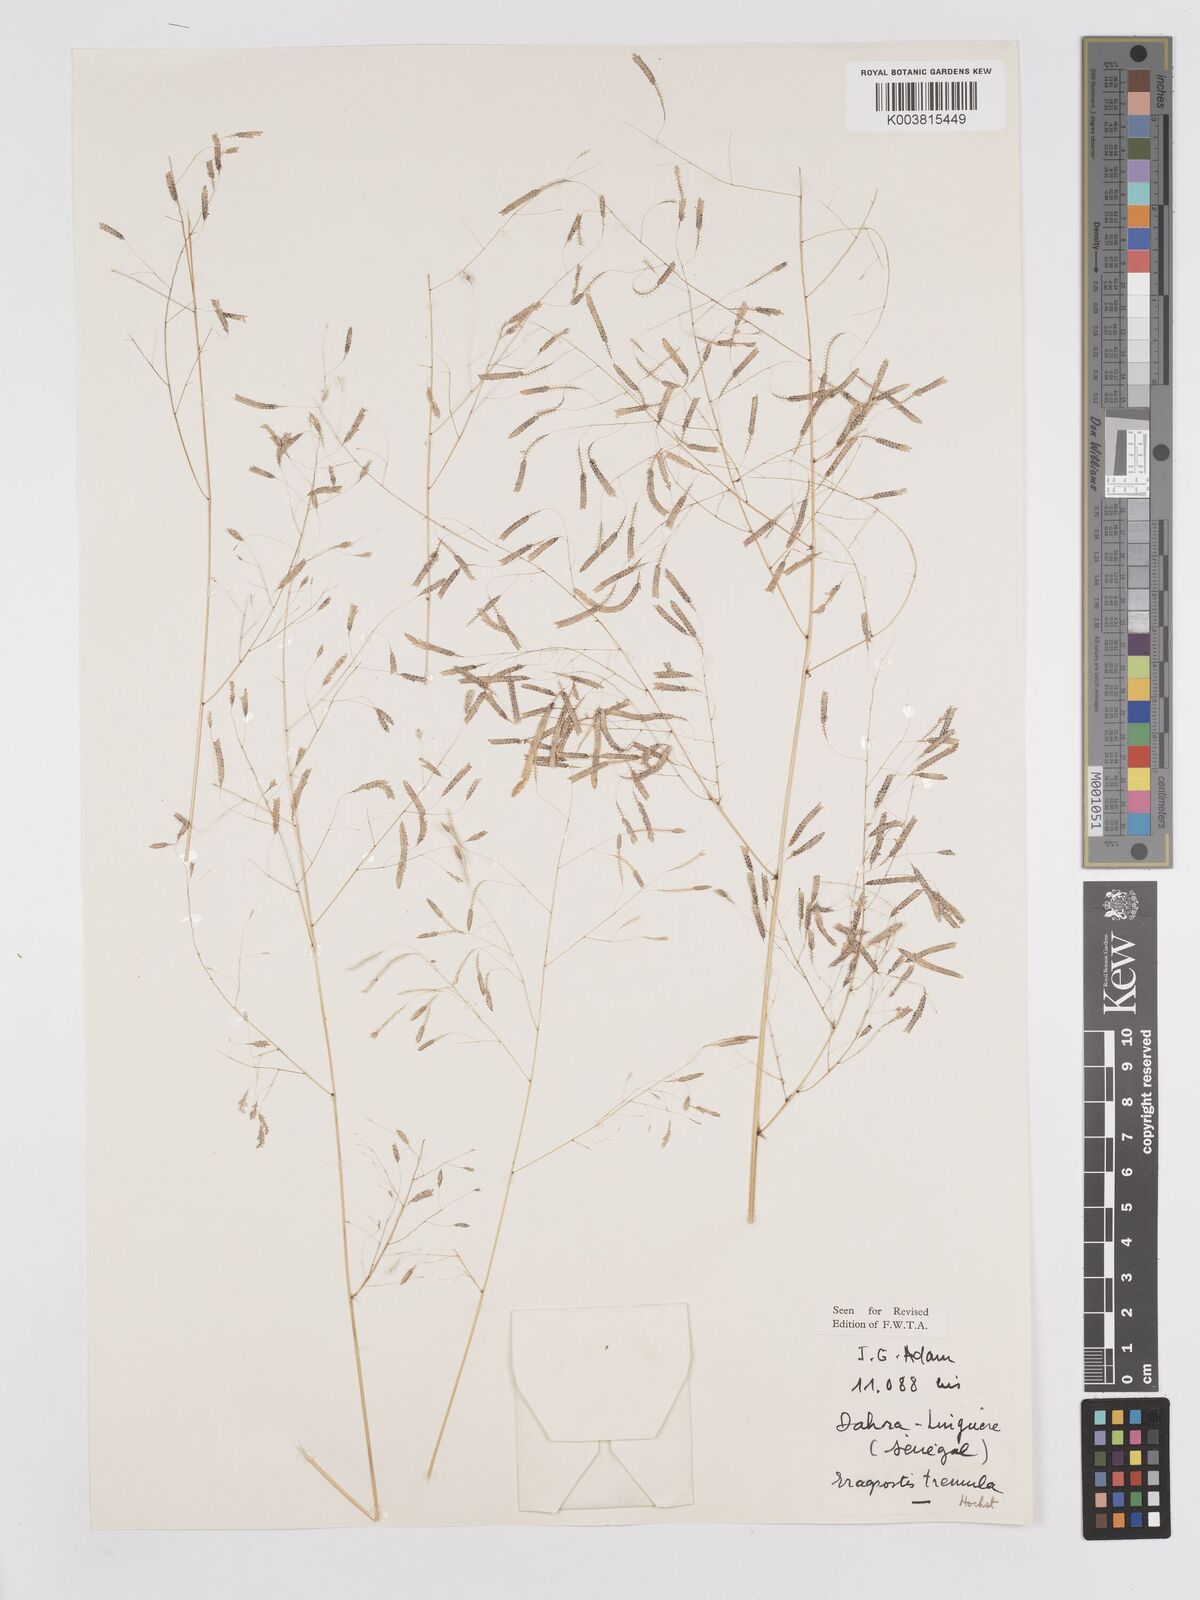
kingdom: Plantae
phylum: Tracheophyta
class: Liliopsida
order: Poales
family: Poaceae
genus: Eragrostis
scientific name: Eragrostis tremula
